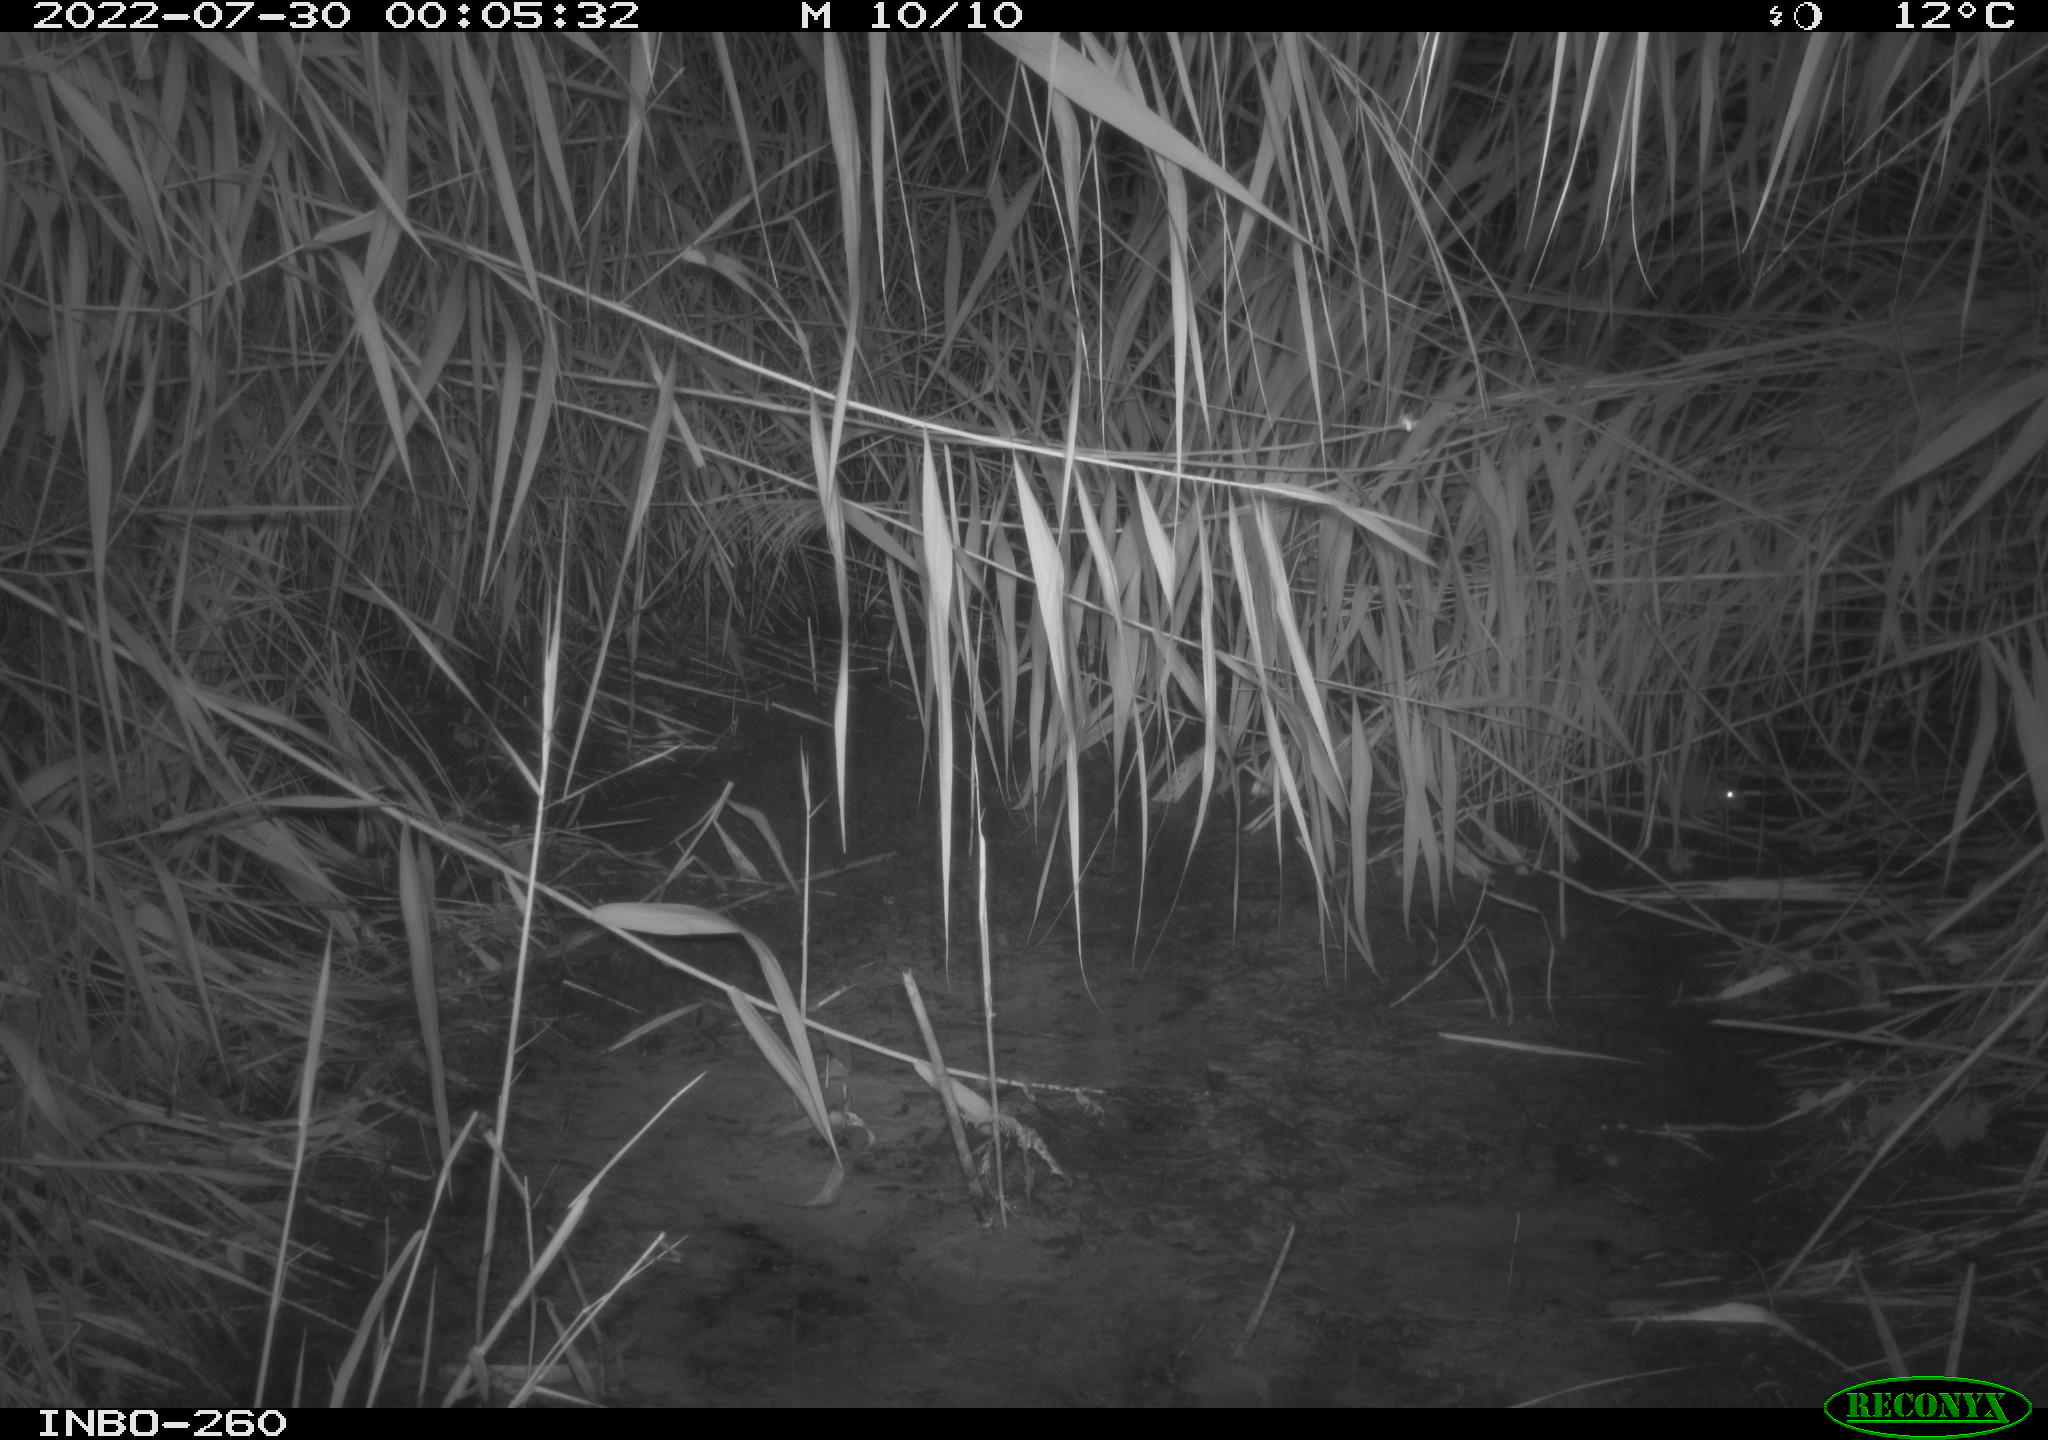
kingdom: Animalia
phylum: Chordata
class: Mammalia
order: Rodentia
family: Muridae
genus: Rattus
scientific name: Rattus norvegicus
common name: Brown rat
